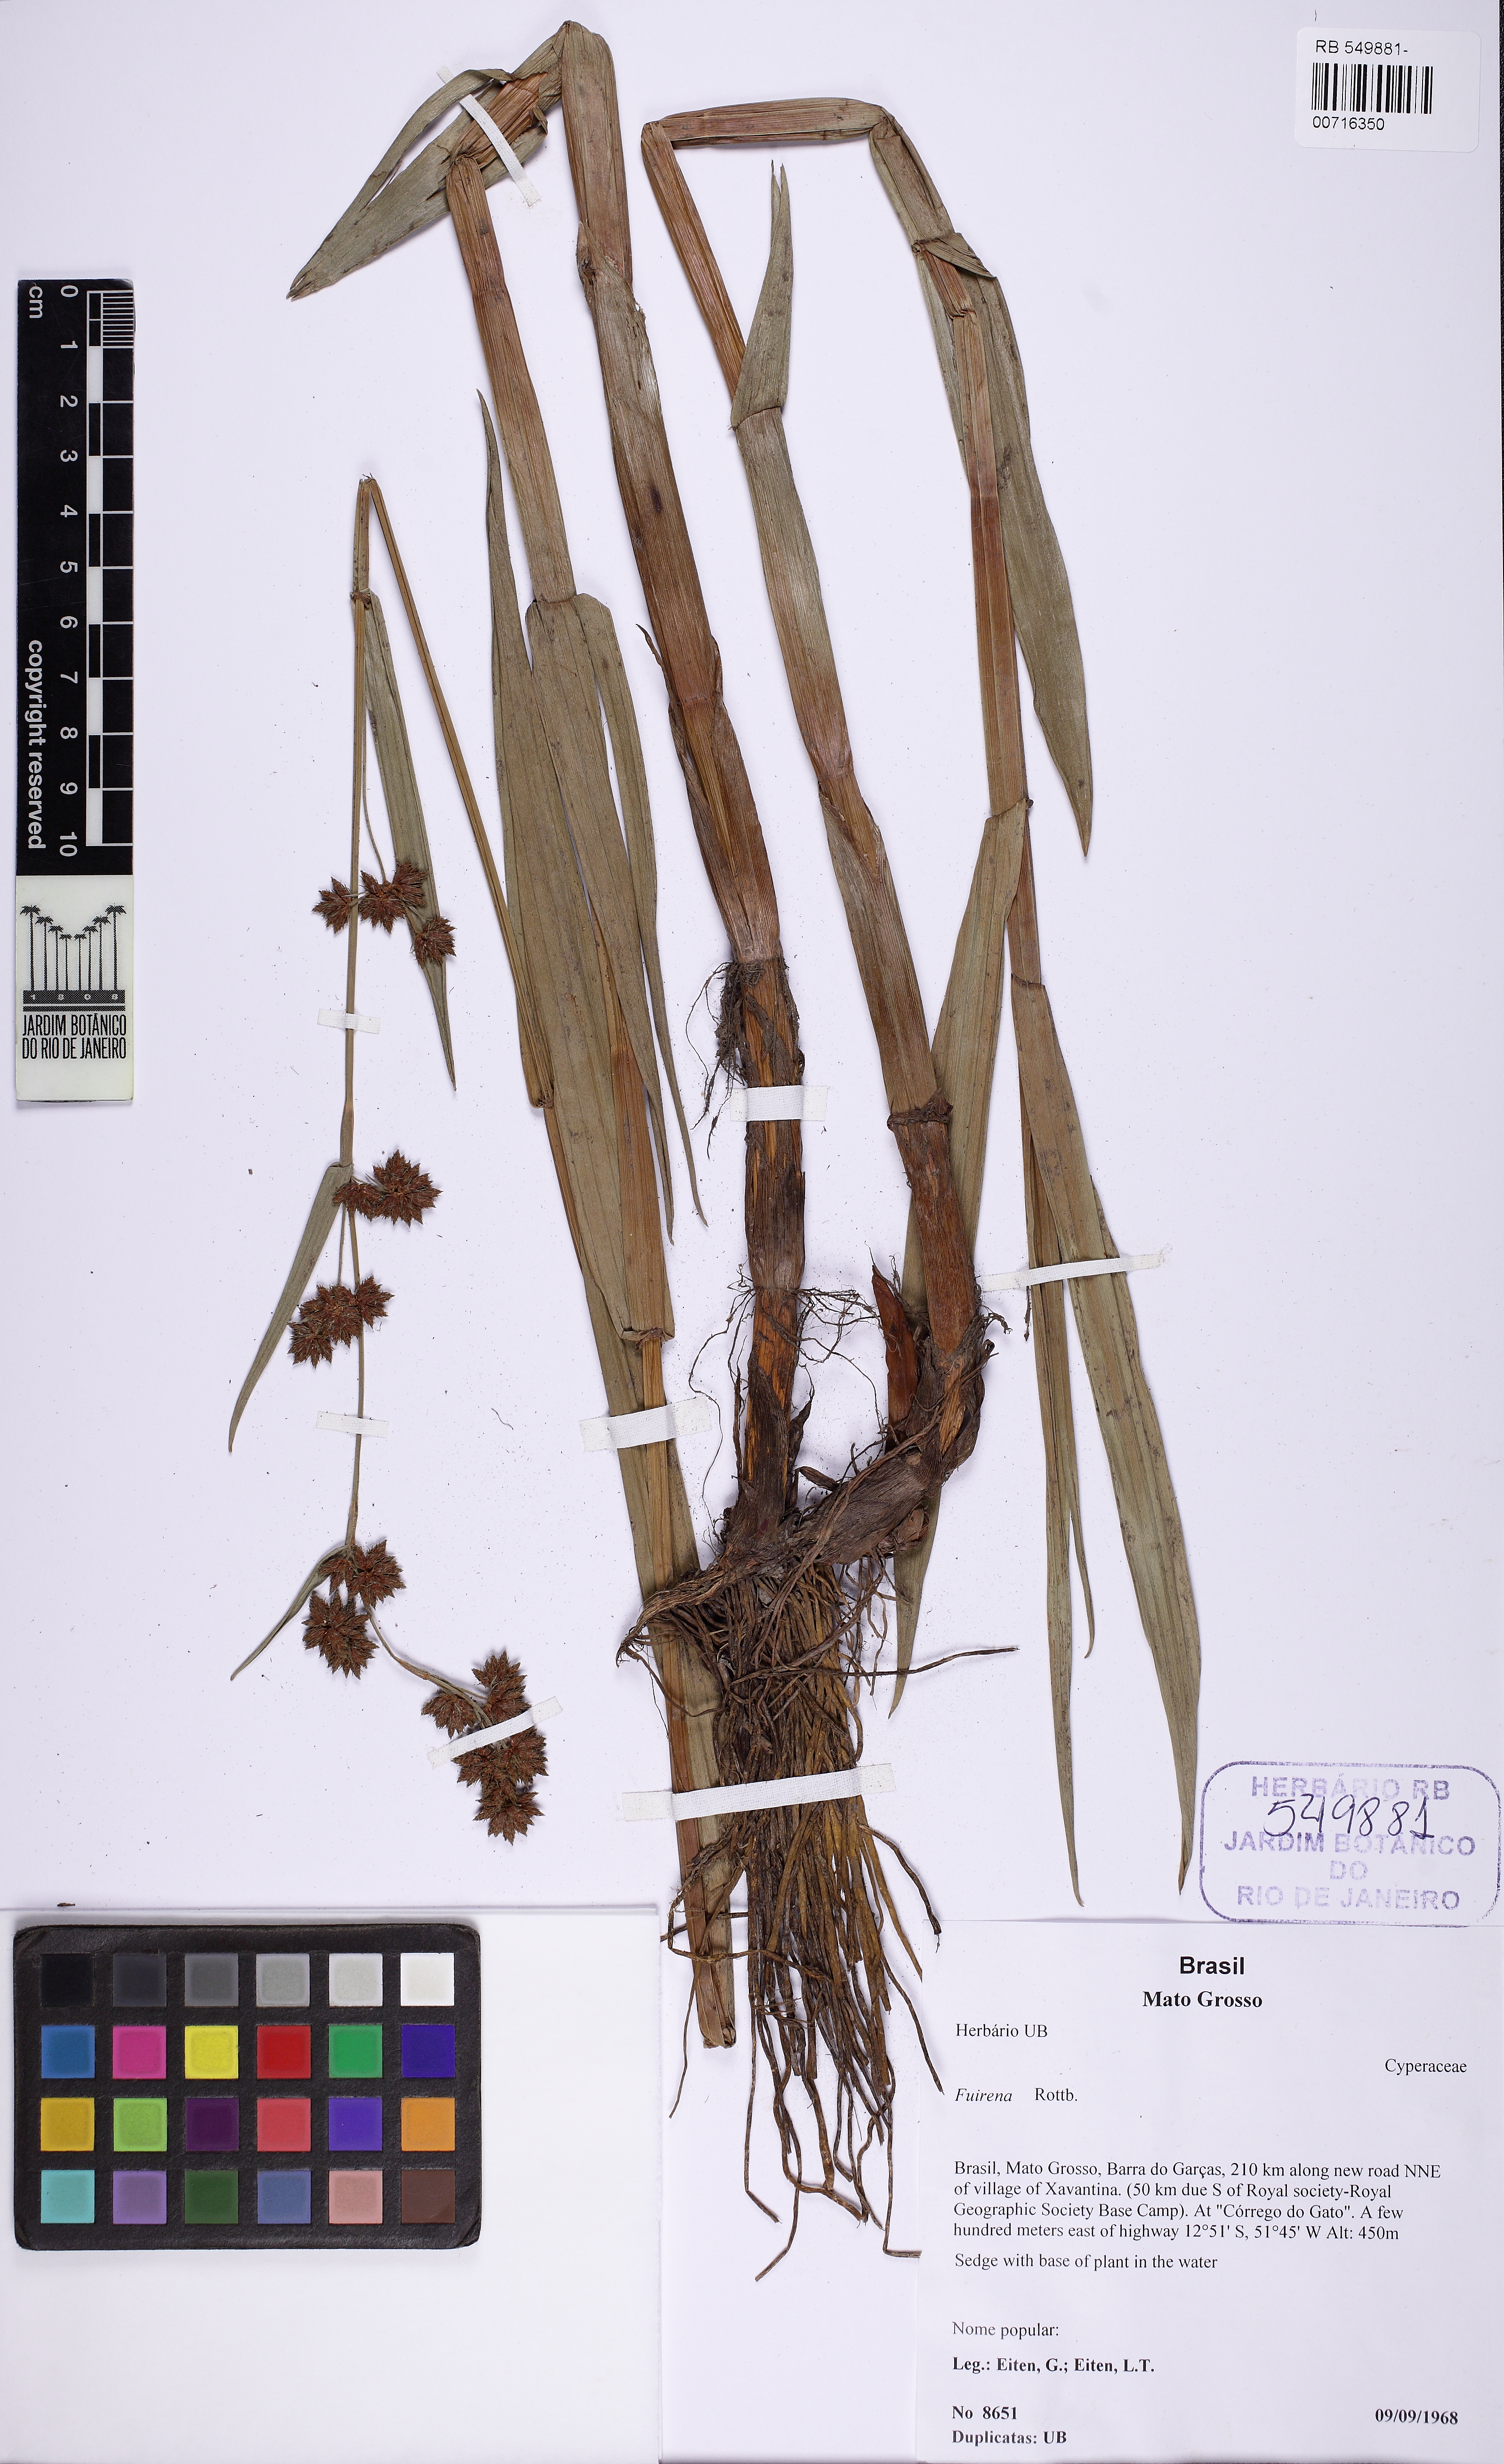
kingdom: Plantae
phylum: Tracheophyta
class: Liliopsida
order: Poales
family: Cyperaceae
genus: Fuirena
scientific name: Fuirena
